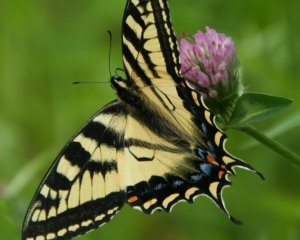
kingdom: Animalia
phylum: Arthropoda
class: Insecta
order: Lepidoptera
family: Papilionidae
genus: Pterourus
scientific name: Pterourus canadensis
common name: Canadian Tiger Swallowtail
